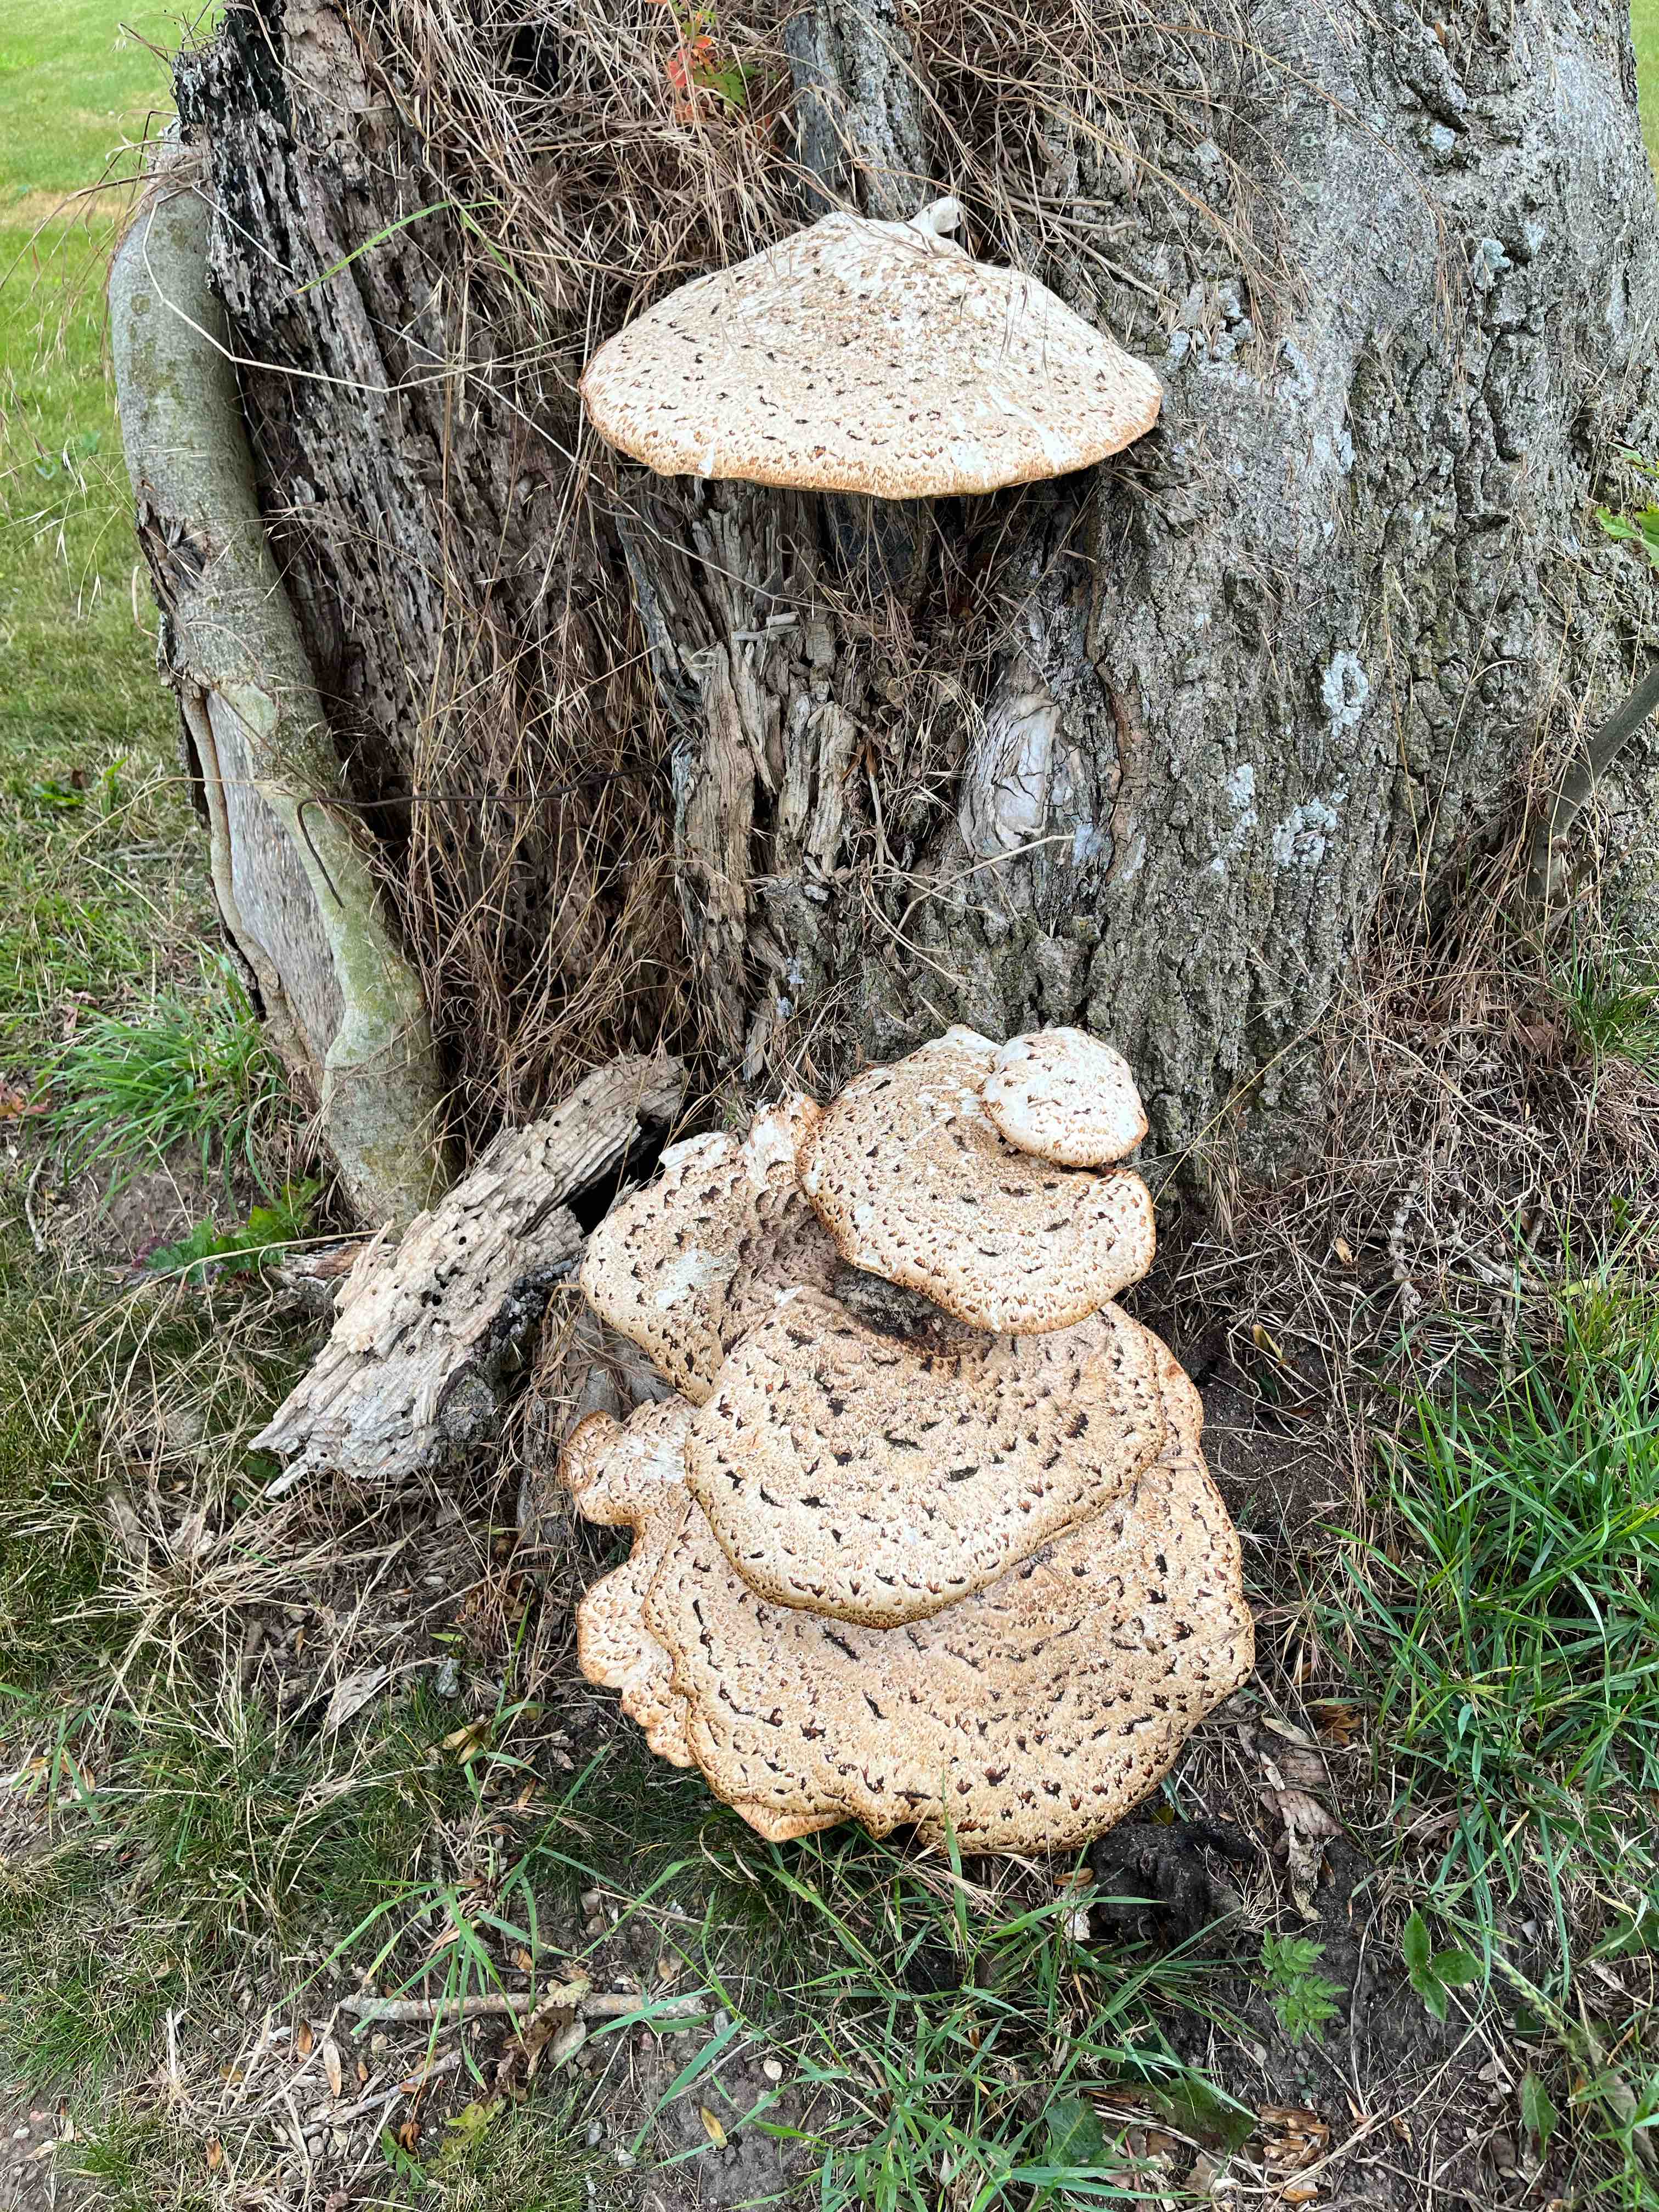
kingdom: Fungi
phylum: Basidiomycota
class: Agaricomycetes
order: Polyporales
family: Polyporaceae
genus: Cerioporus
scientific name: Cerioporus squamosus
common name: skællet stilkporesvamp
